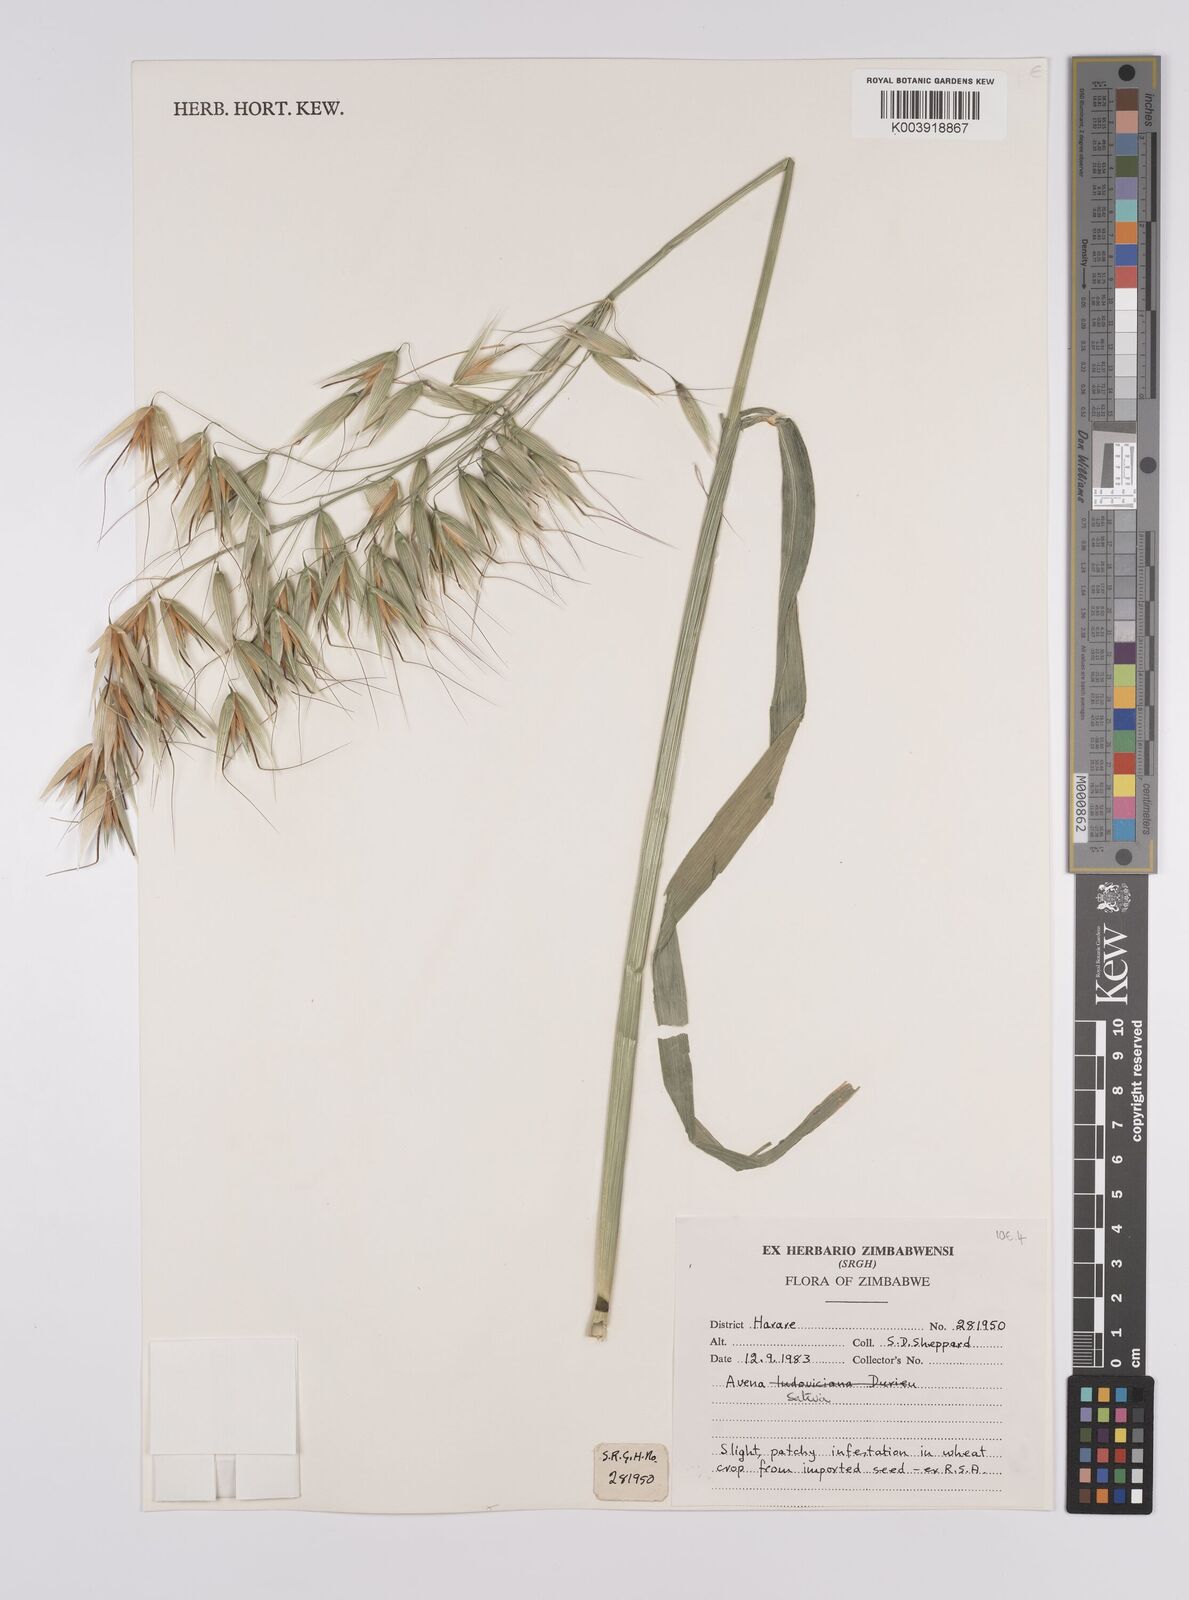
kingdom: Plantae
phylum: Tracheophyta
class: Liliopsida
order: Poales
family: Poaceae
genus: Avena
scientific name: Avena sterilis
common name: Animated oat
